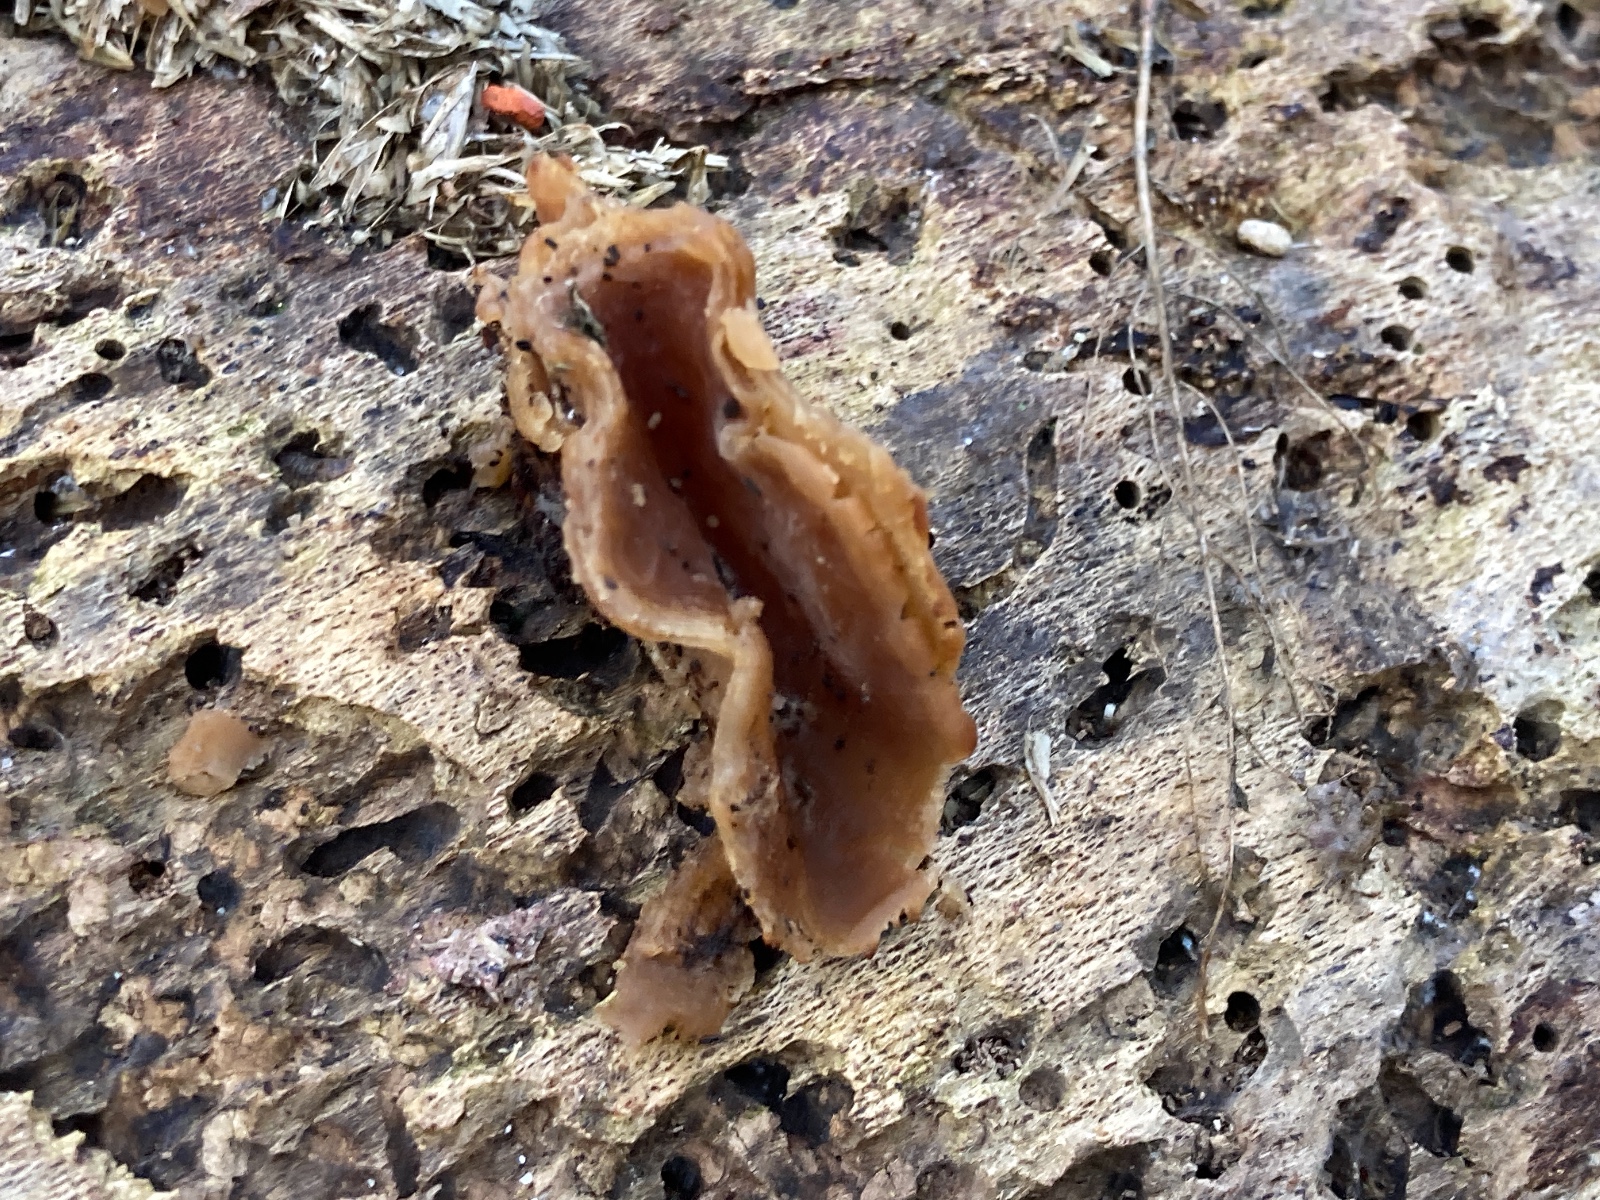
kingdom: Fungi
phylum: Ascomycota
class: Pezizomycetes
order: Pezizales
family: Pezizaceae
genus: Peziza
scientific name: Peziza varia
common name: Ved-bægersvamp
